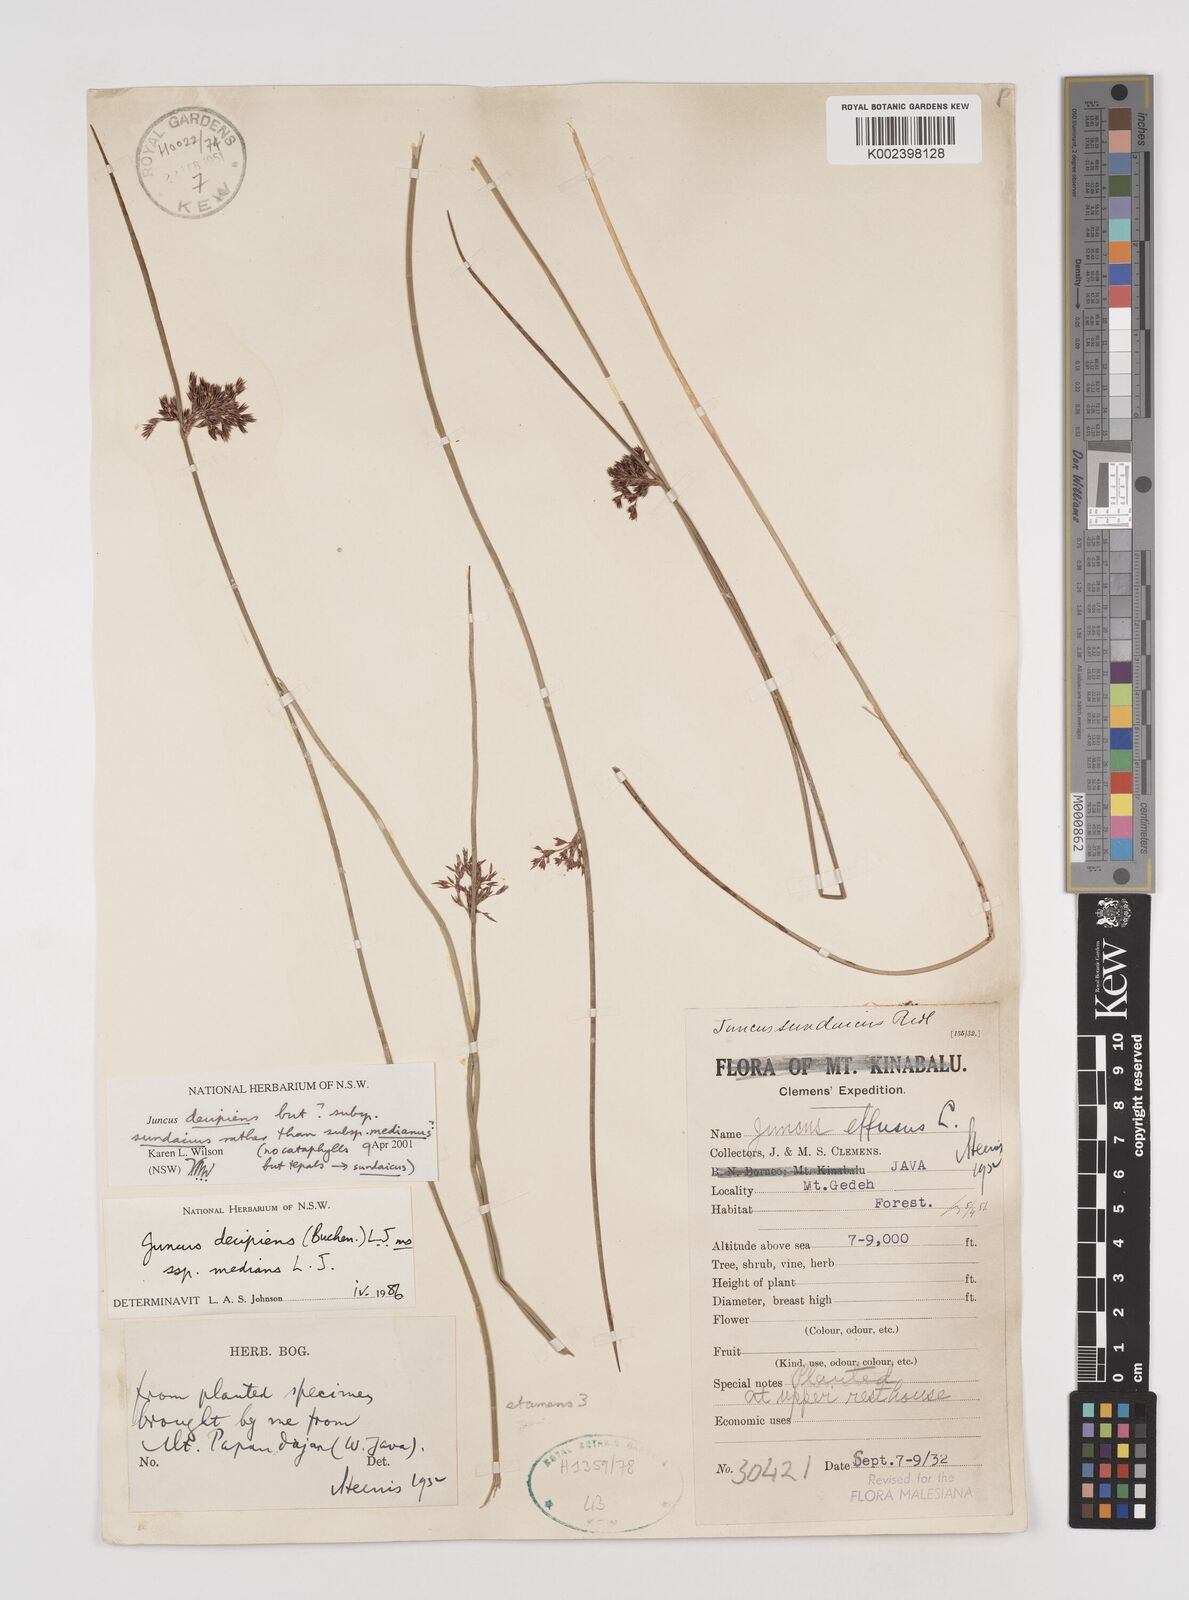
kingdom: Plantae
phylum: Tracheophyta
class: Liliopsida
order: Poales
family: Juncaceae
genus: Juncus
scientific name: Juncus decipiens
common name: Lamp rush
